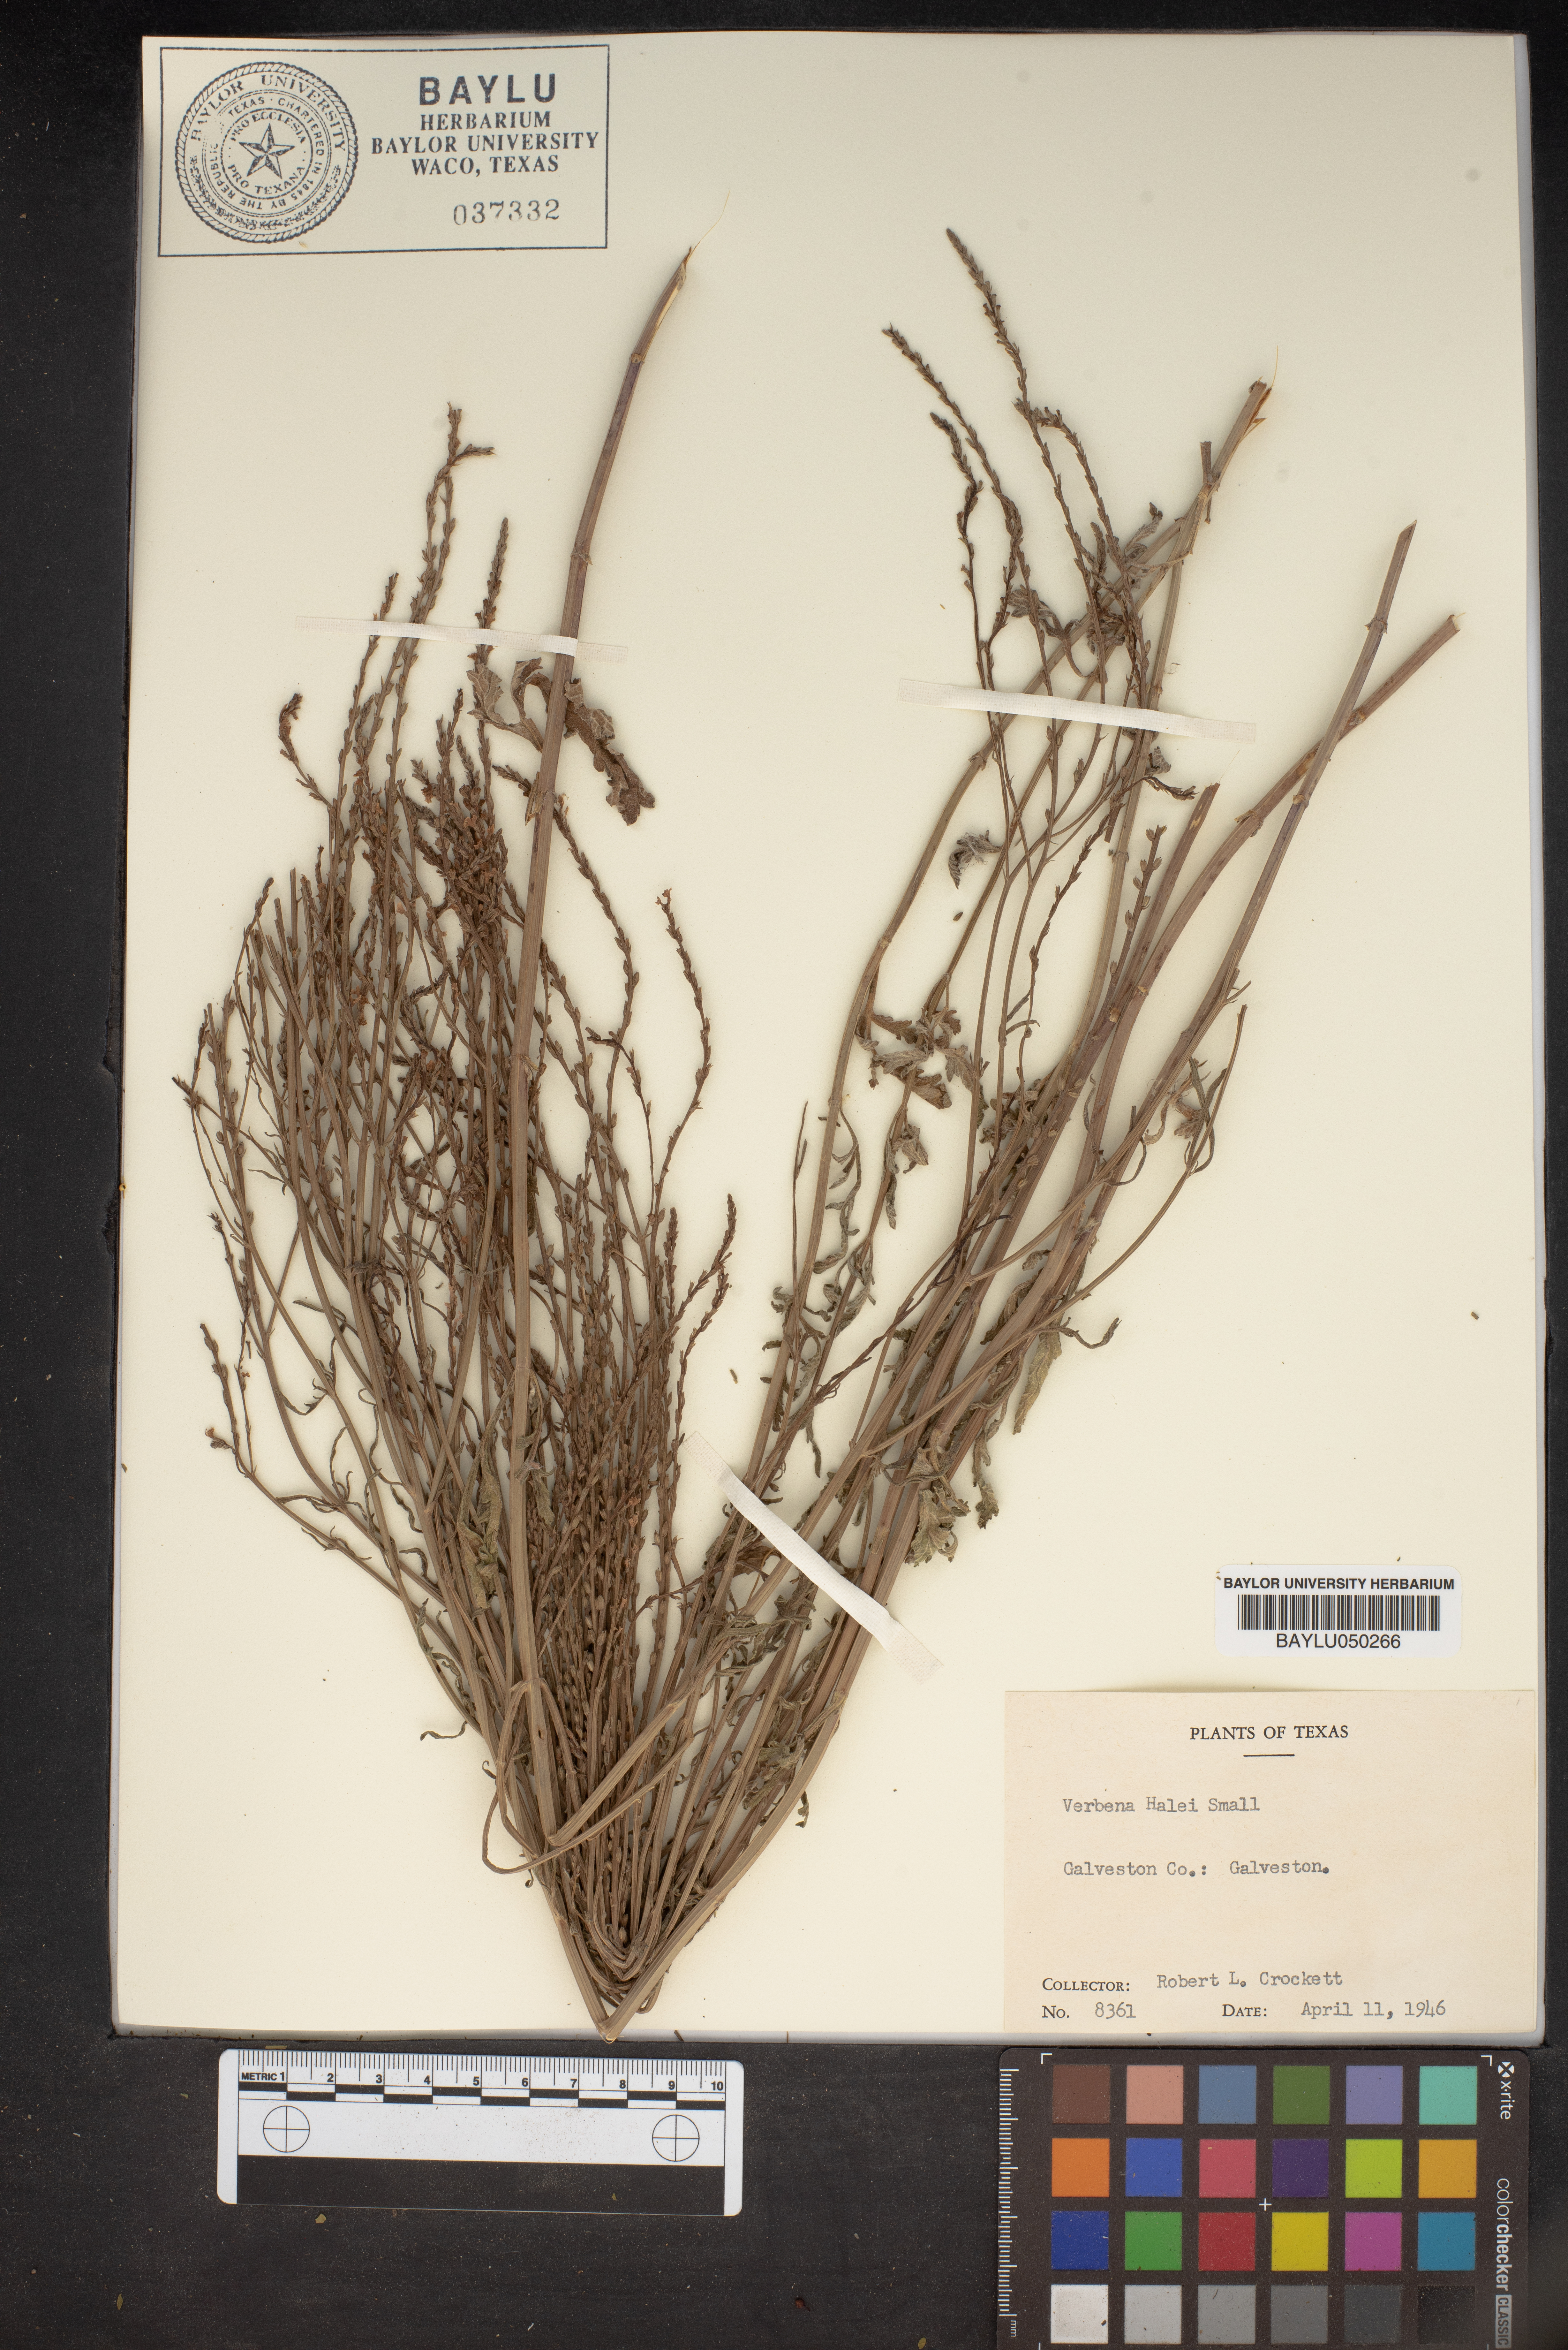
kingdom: Plantae
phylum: Tracheophyta
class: Magnoliopsida
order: Lamiales
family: Verbenaceae
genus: Verbena
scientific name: Verbena halei
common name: Texas vervain
